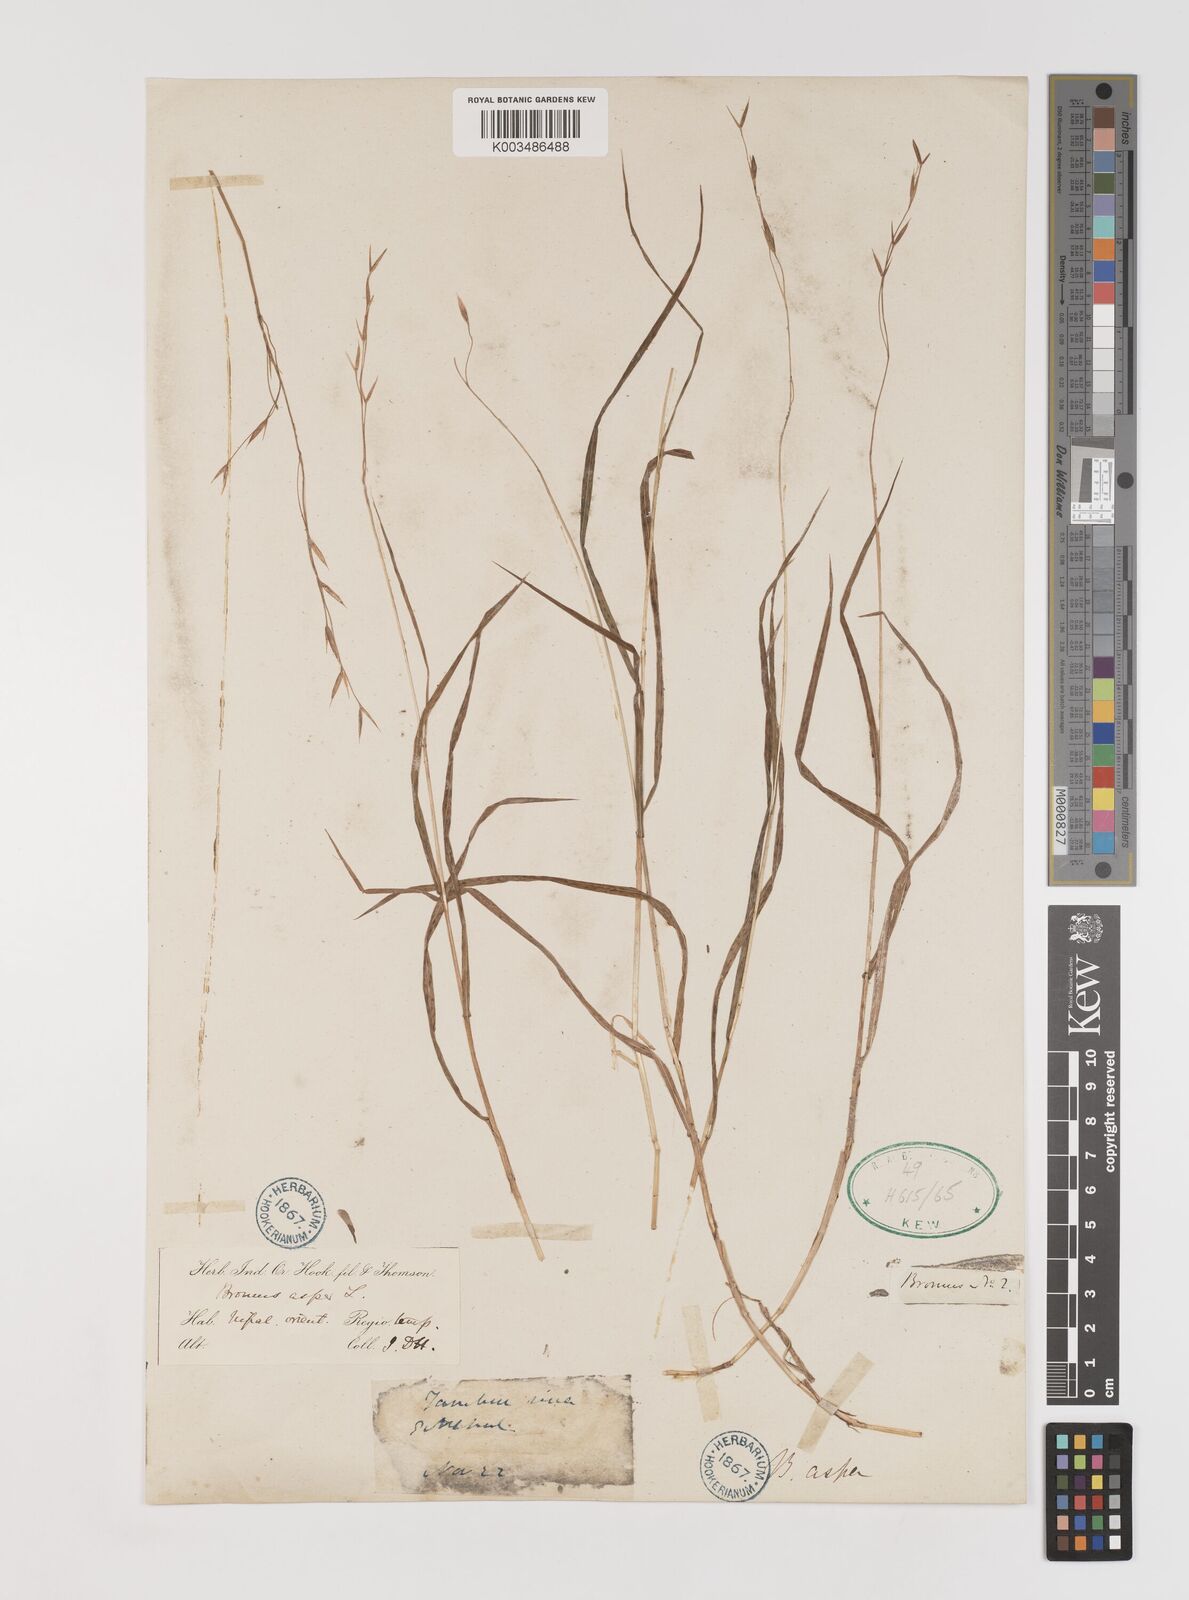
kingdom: Plantae
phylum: Tracheophyta
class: Liliopsida
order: Poales
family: Poaceae
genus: Bromus
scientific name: Bromus himalaicus
